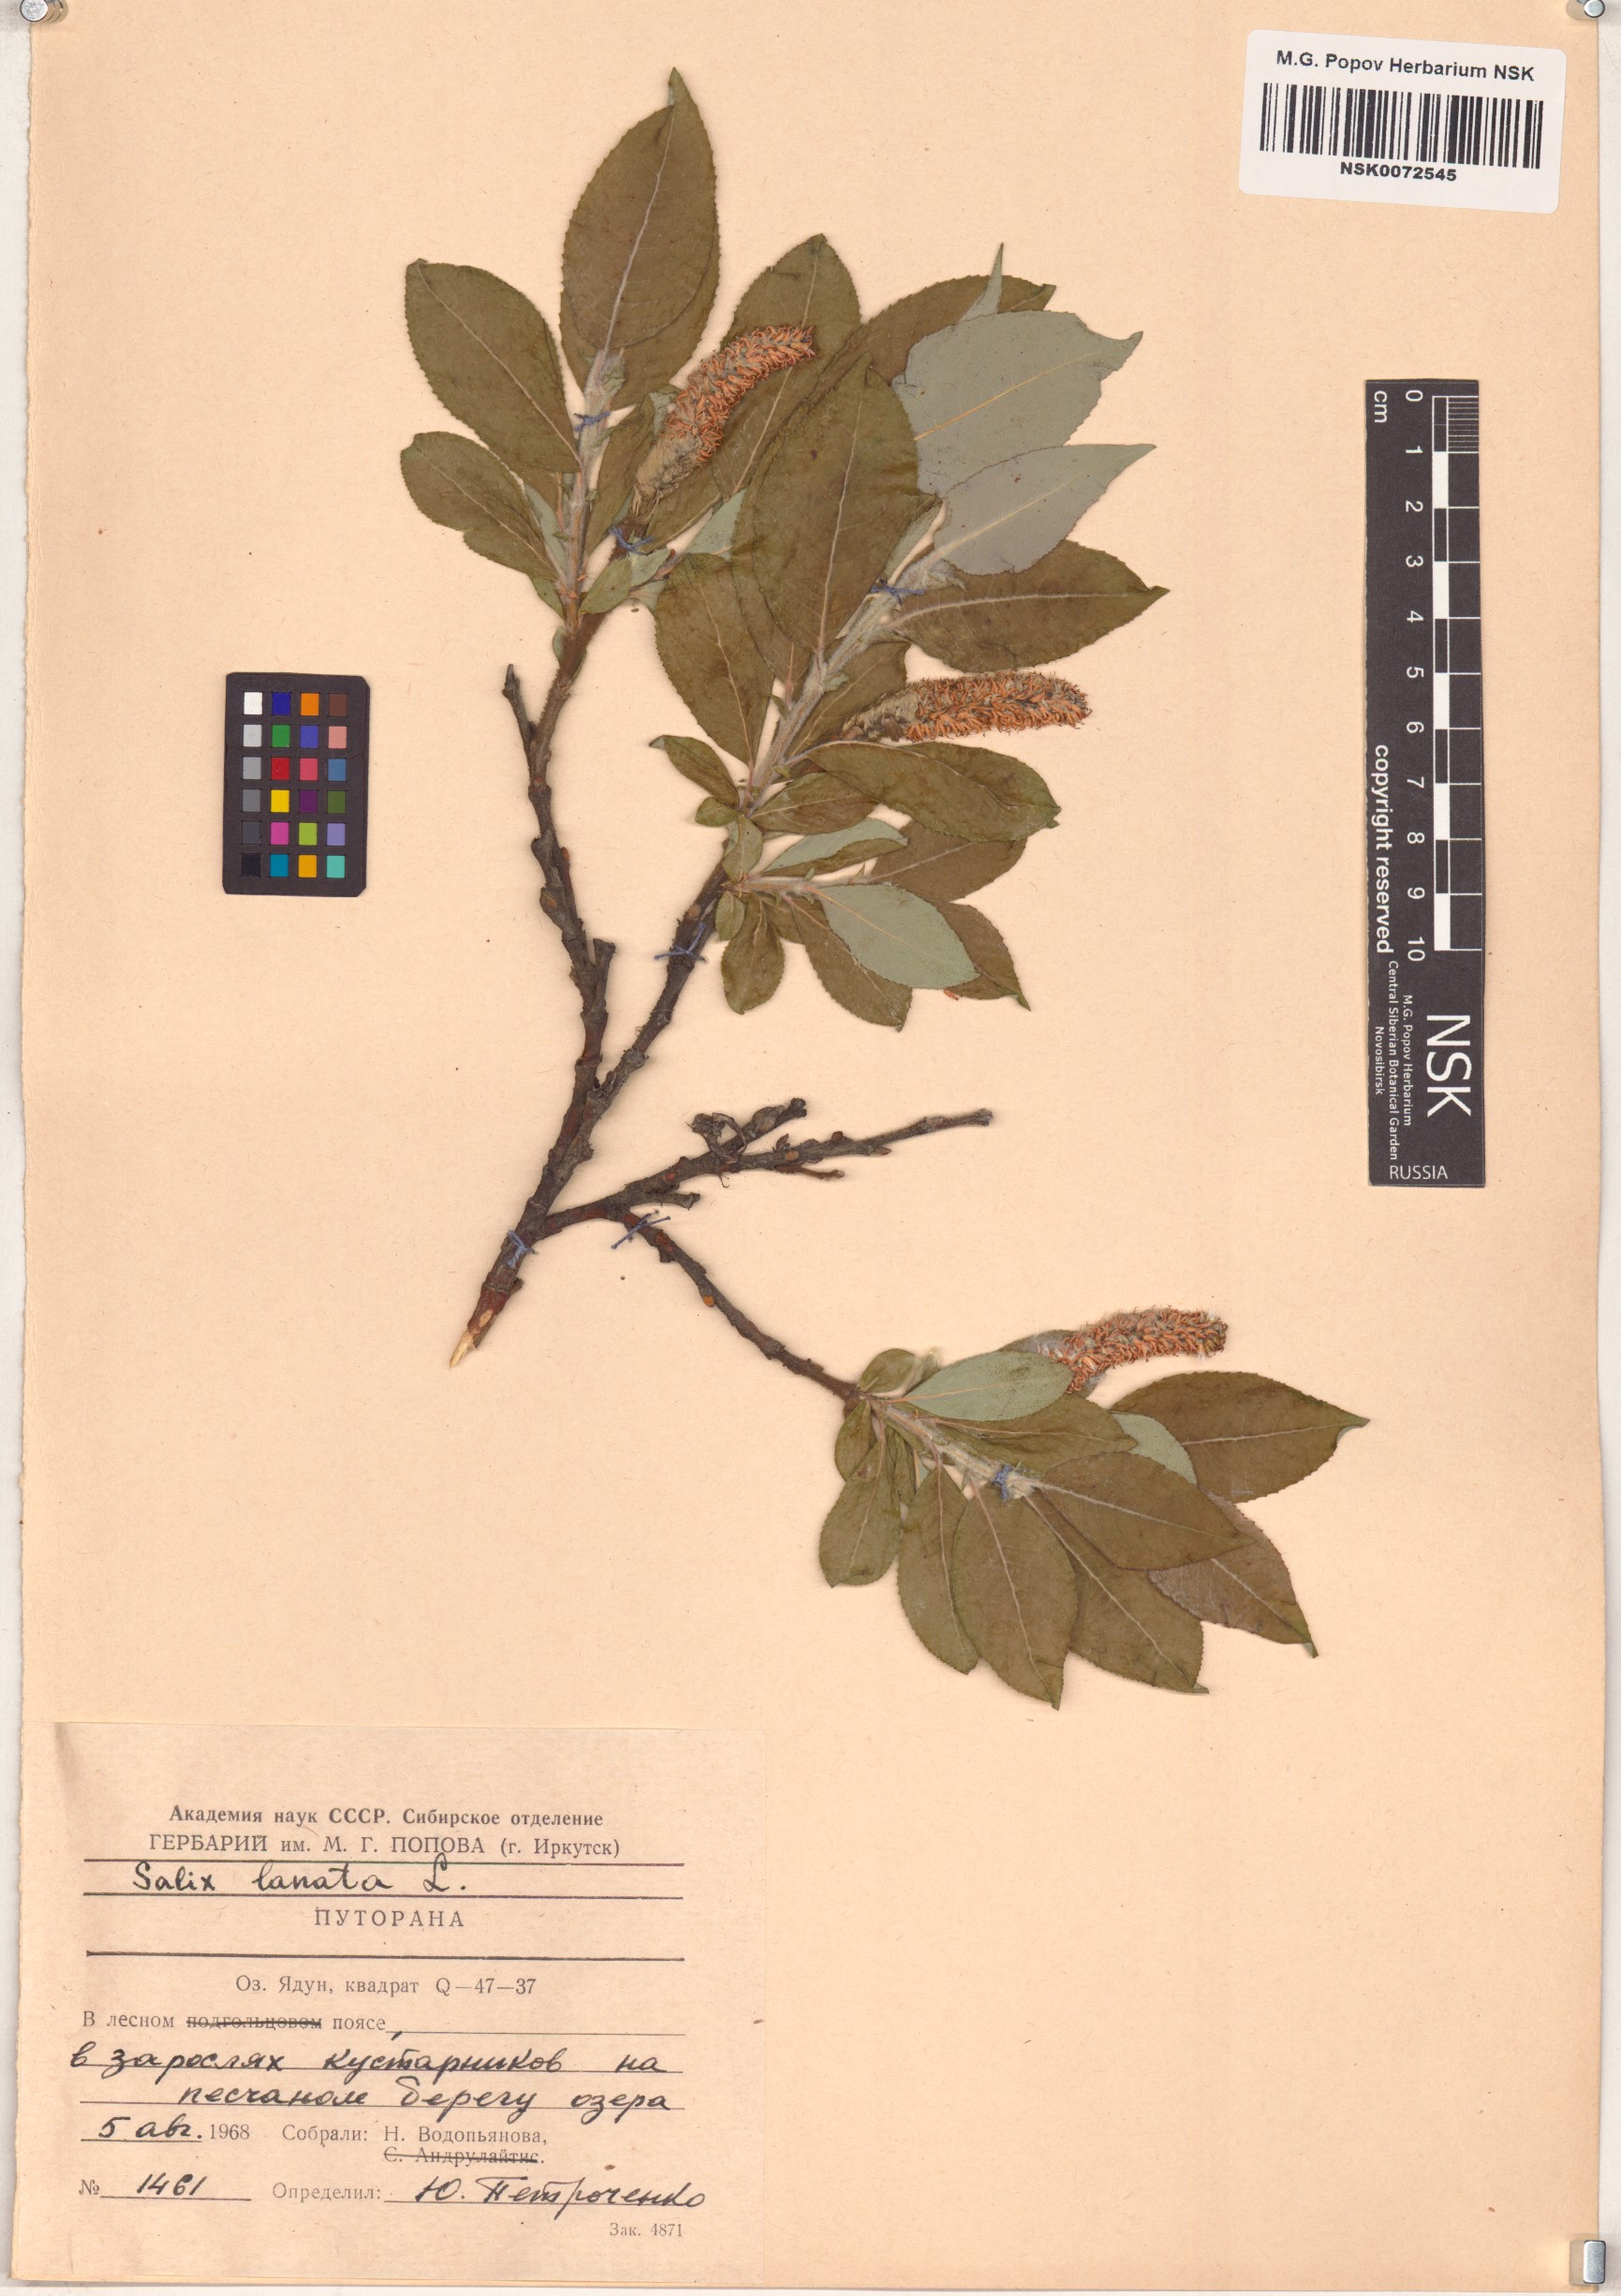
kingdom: Plantae
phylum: Tracheophyta
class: Magnoliopsida
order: Malpighiales
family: Salicaceae
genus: Salix
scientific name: Salix lanata
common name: Woolly willow
